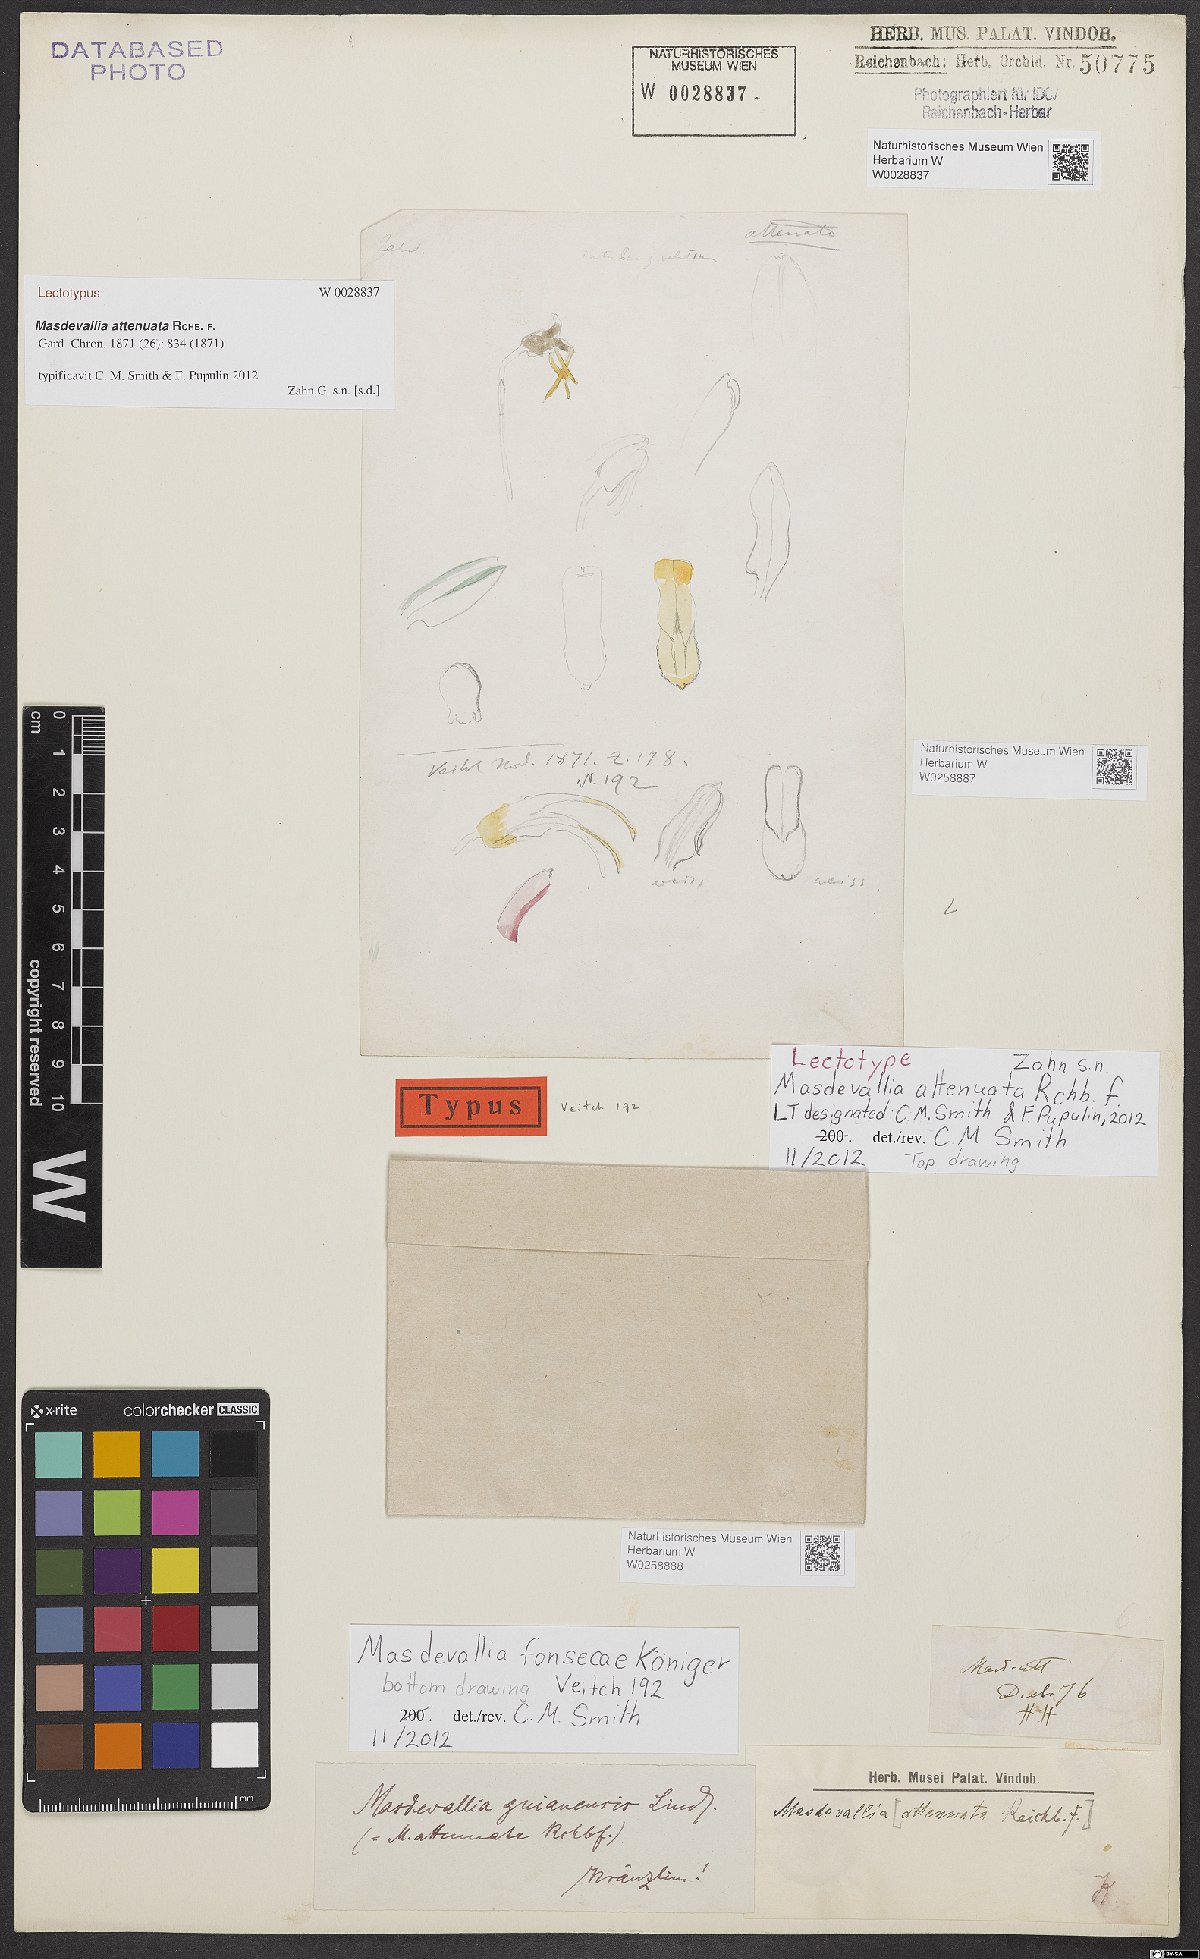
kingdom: Plantae
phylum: Tracheophyta
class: Liliopsida
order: Asparagales
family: Orchidaceae
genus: Masdevallia
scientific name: Masdevallia fonsecae
